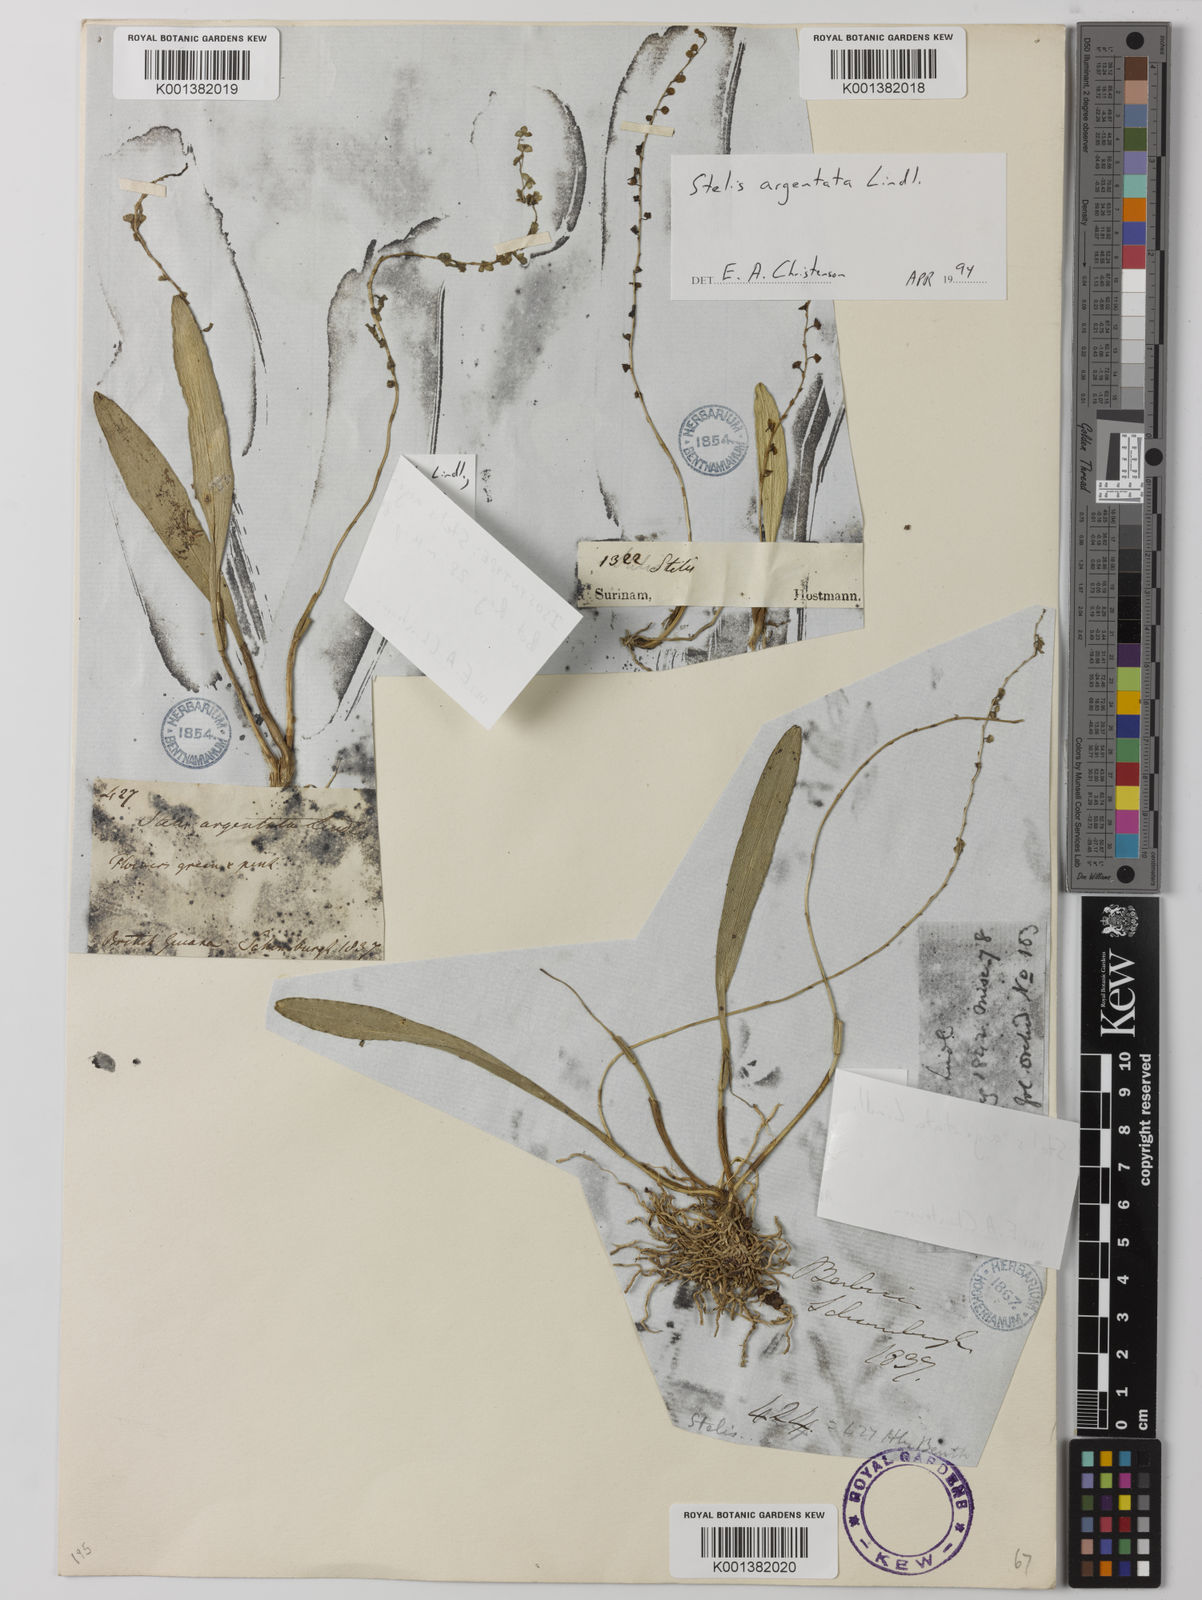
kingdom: Plantae
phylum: Tracheophyta
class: Liliopsida
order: Asparagales
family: Orchidaceae
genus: Stelis
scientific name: Stelis argentata
